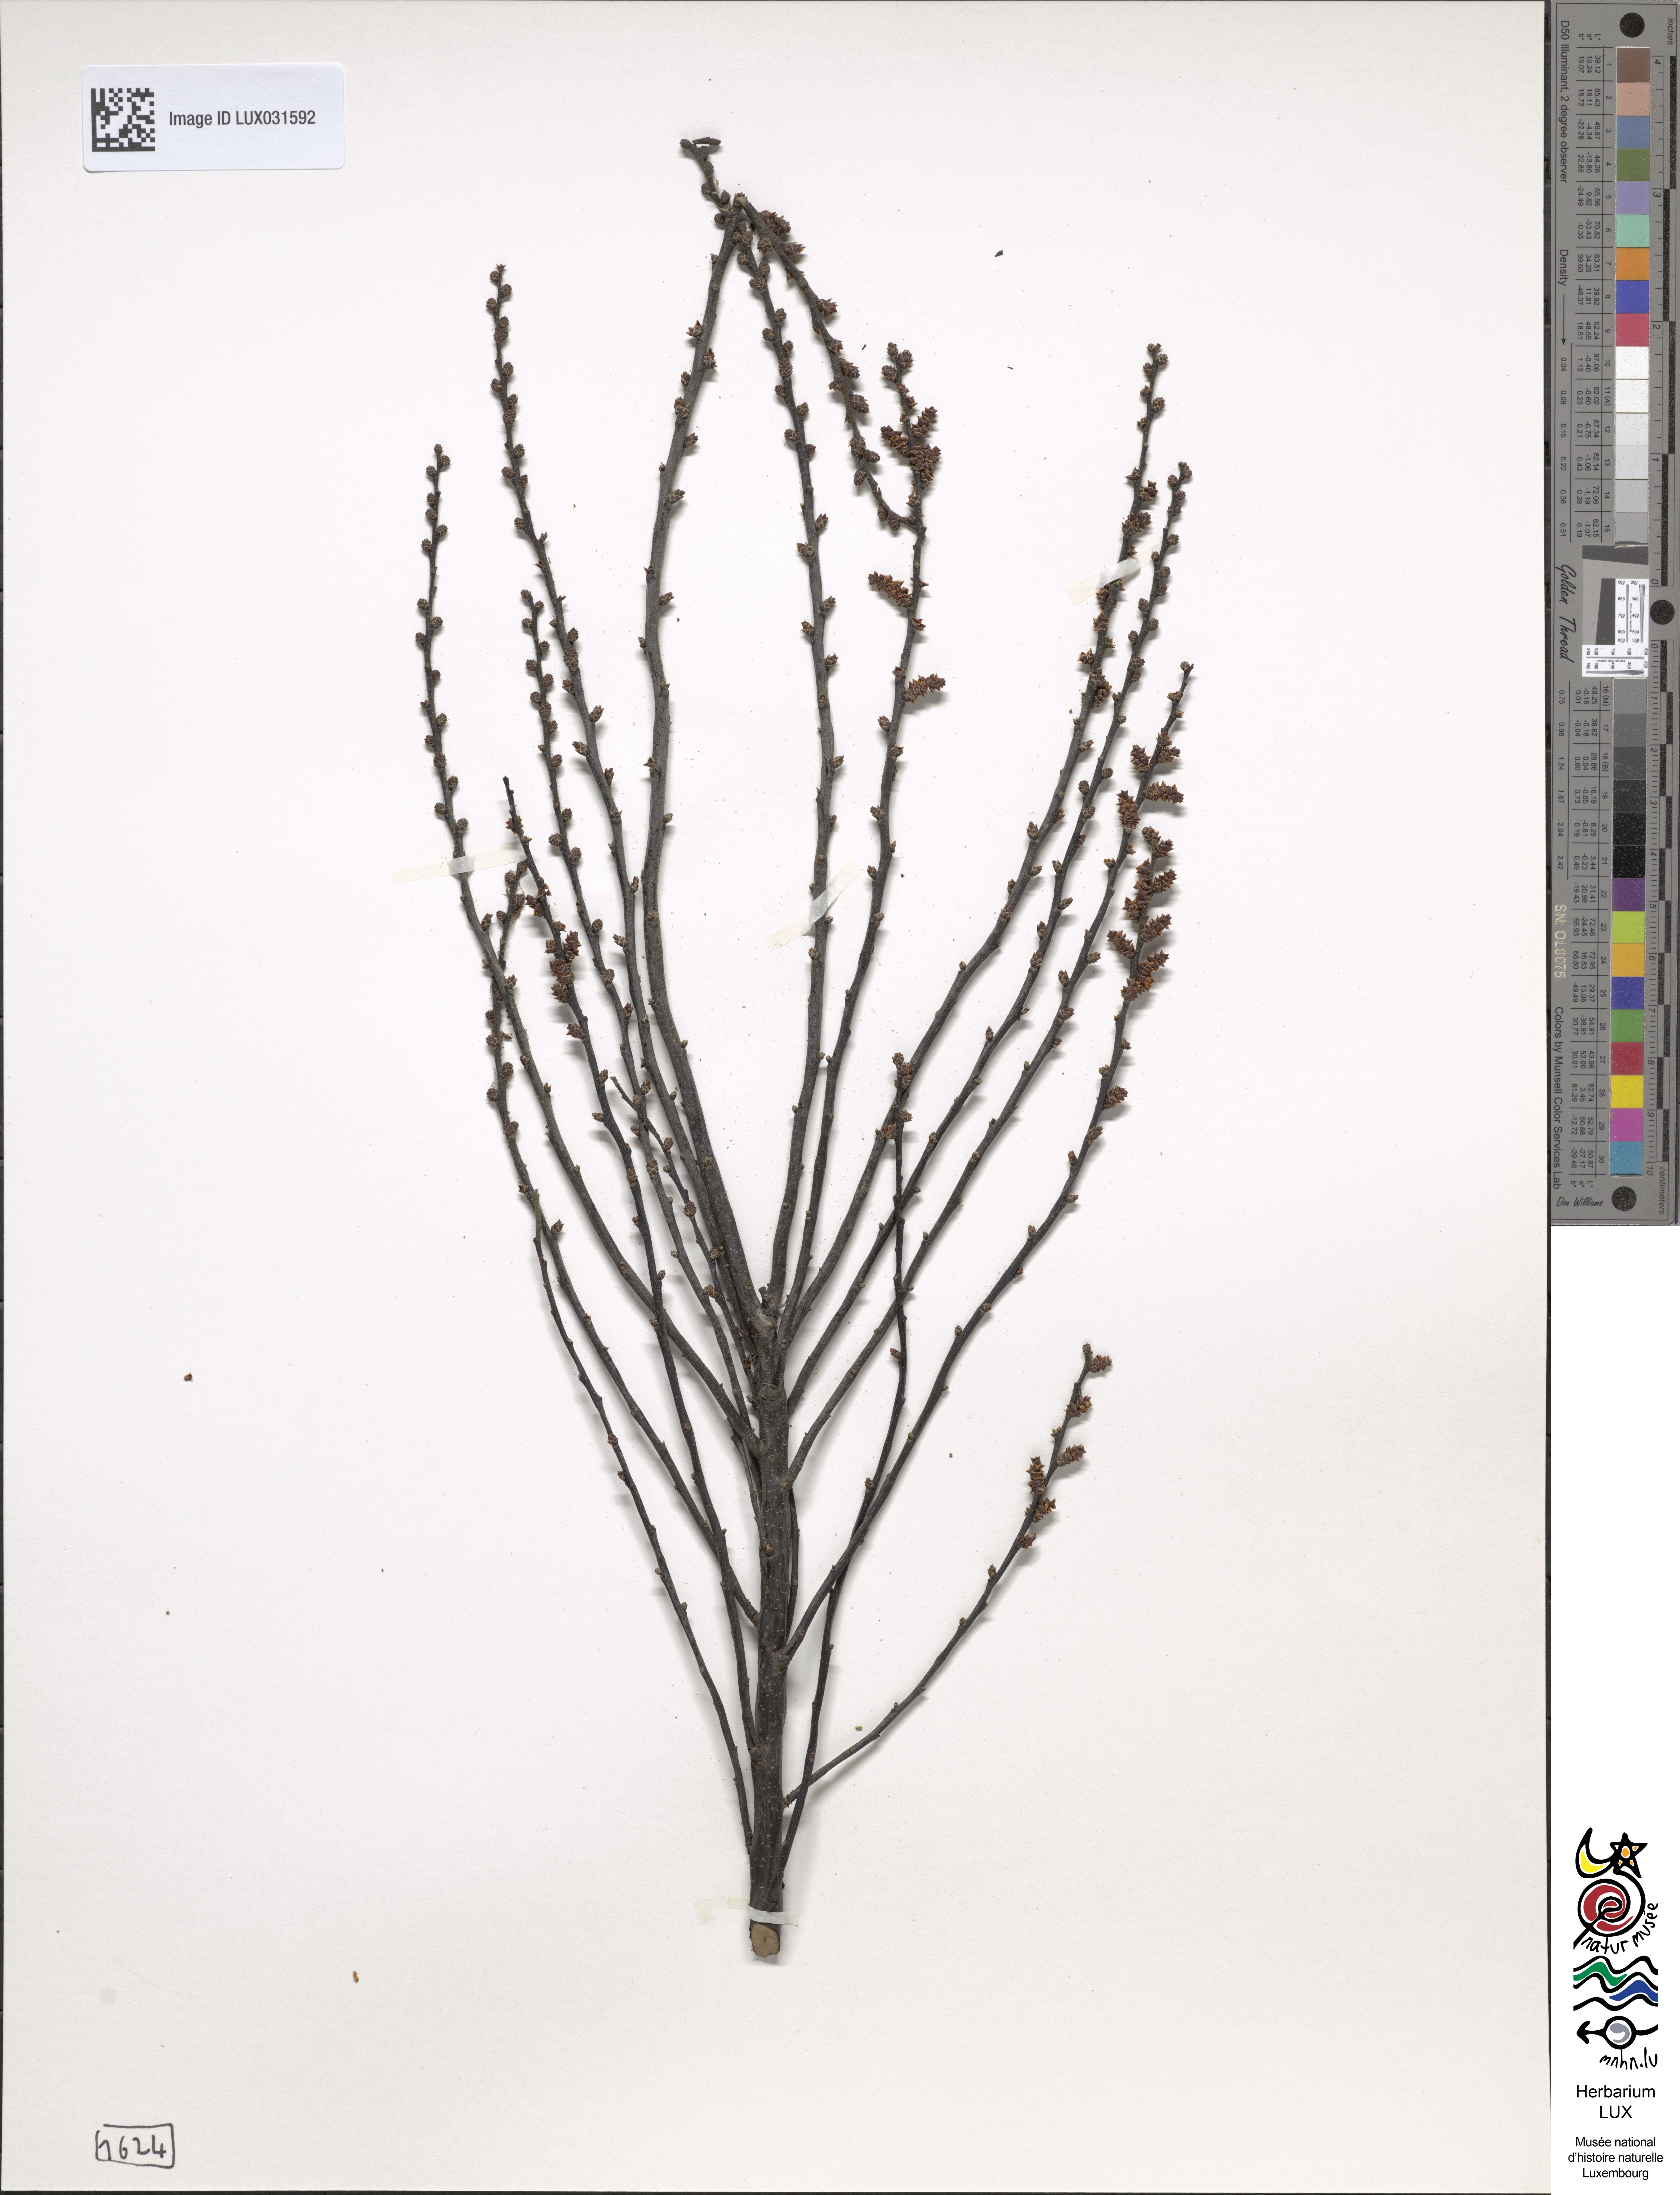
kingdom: Plantae
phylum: Tracheophyta
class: Magnoliopsida
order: Fagales
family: Myricaceae
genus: Myrica
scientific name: Myrica gale
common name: Sweet gale
